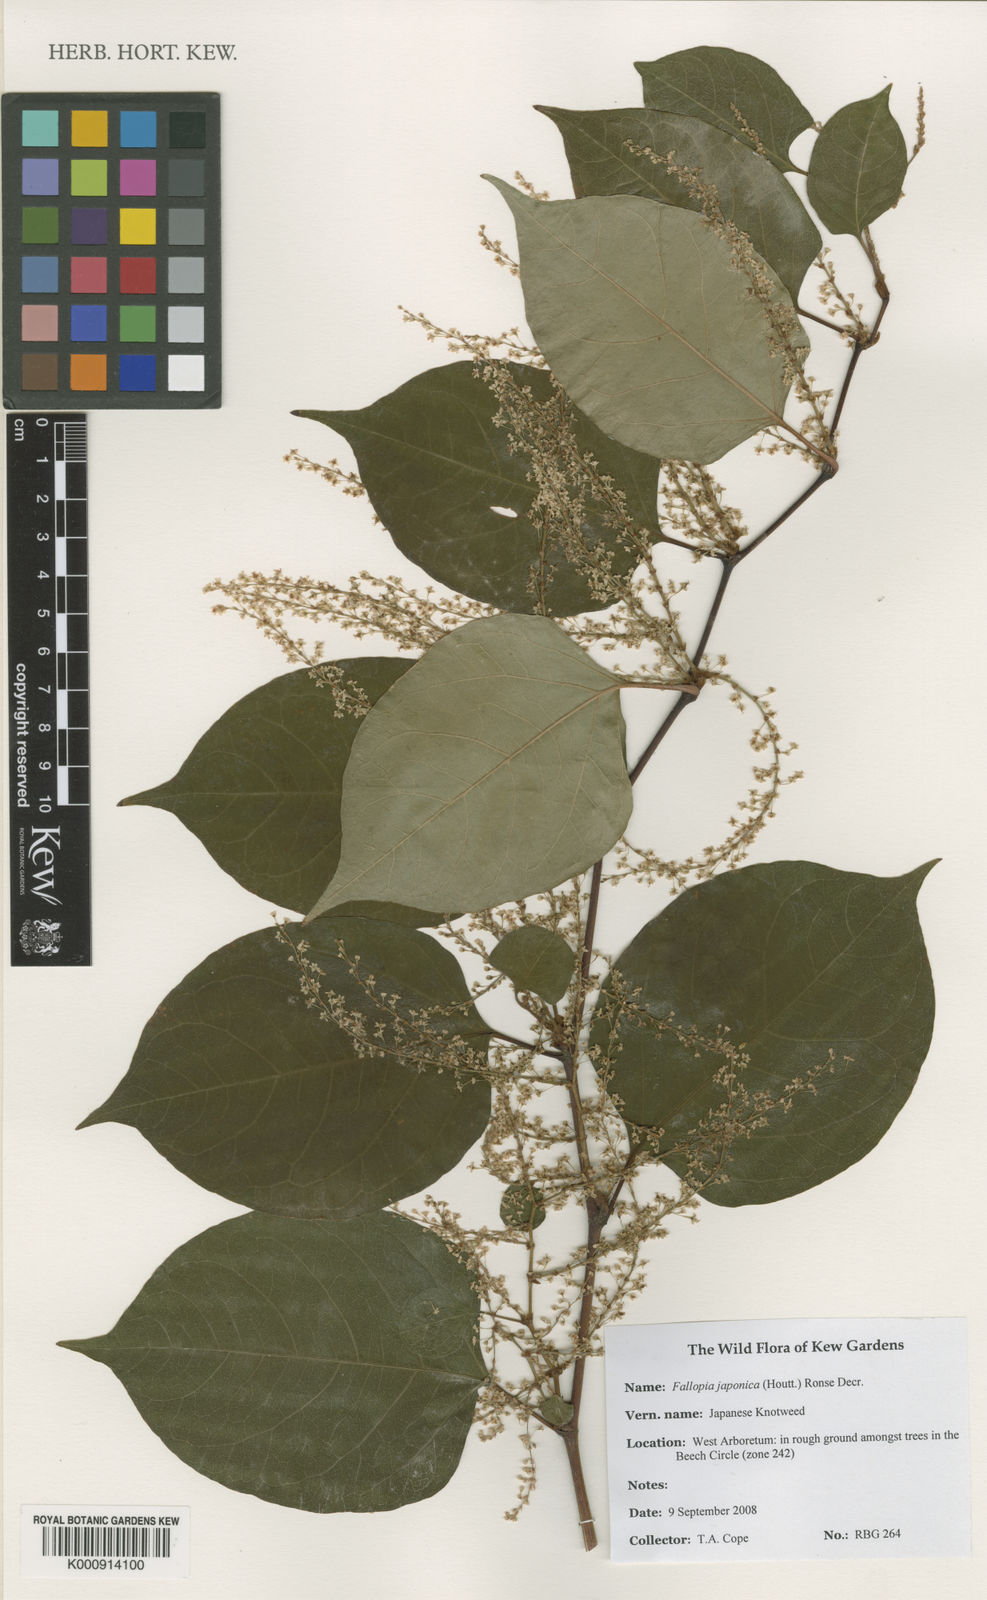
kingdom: Plantae
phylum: Tracheophyta
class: Magnoliopsida
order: Caryophyllales
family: Polygonaceae
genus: Reynoutria
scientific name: Reynoutria japonica
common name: Japanese knotweed
